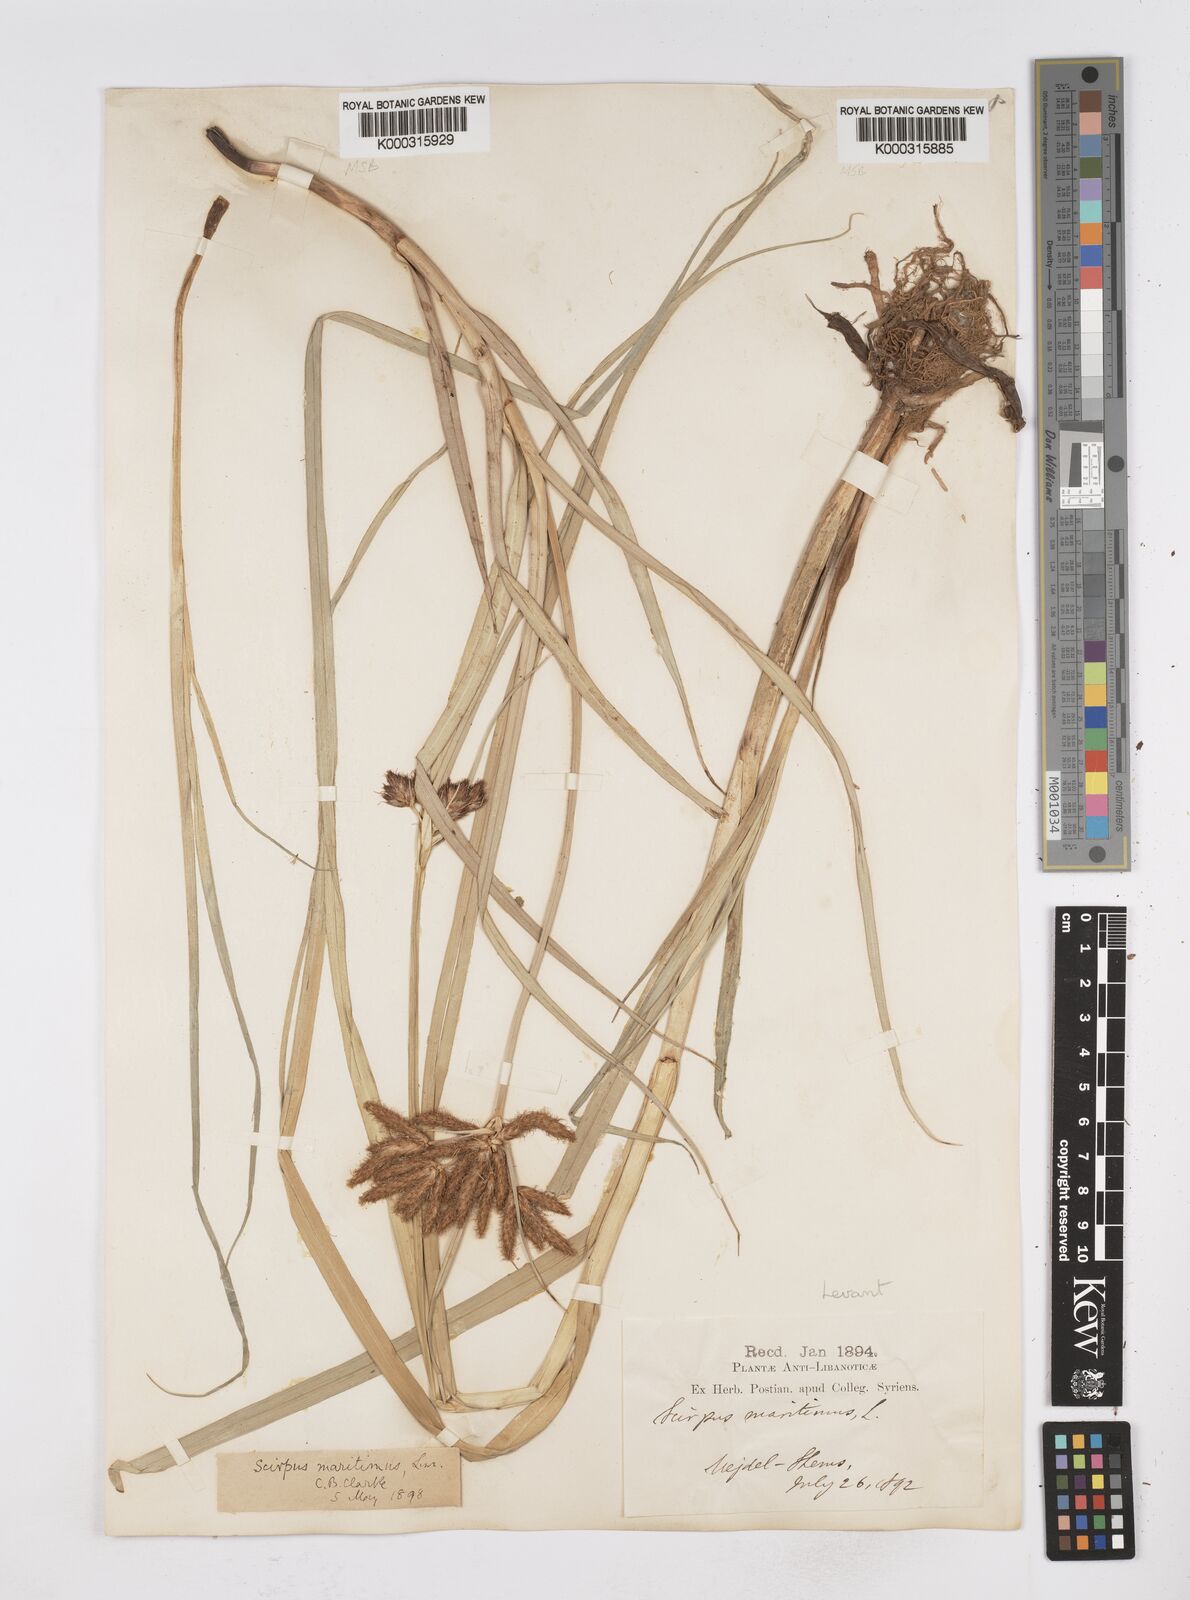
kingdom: Plantae
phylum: Tracheophyta
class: Liliopsida
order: Poales
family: Cyperaceae
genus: Bolboschoenus
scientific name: Bolboschoenus maritimus
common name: Sea club-rush
